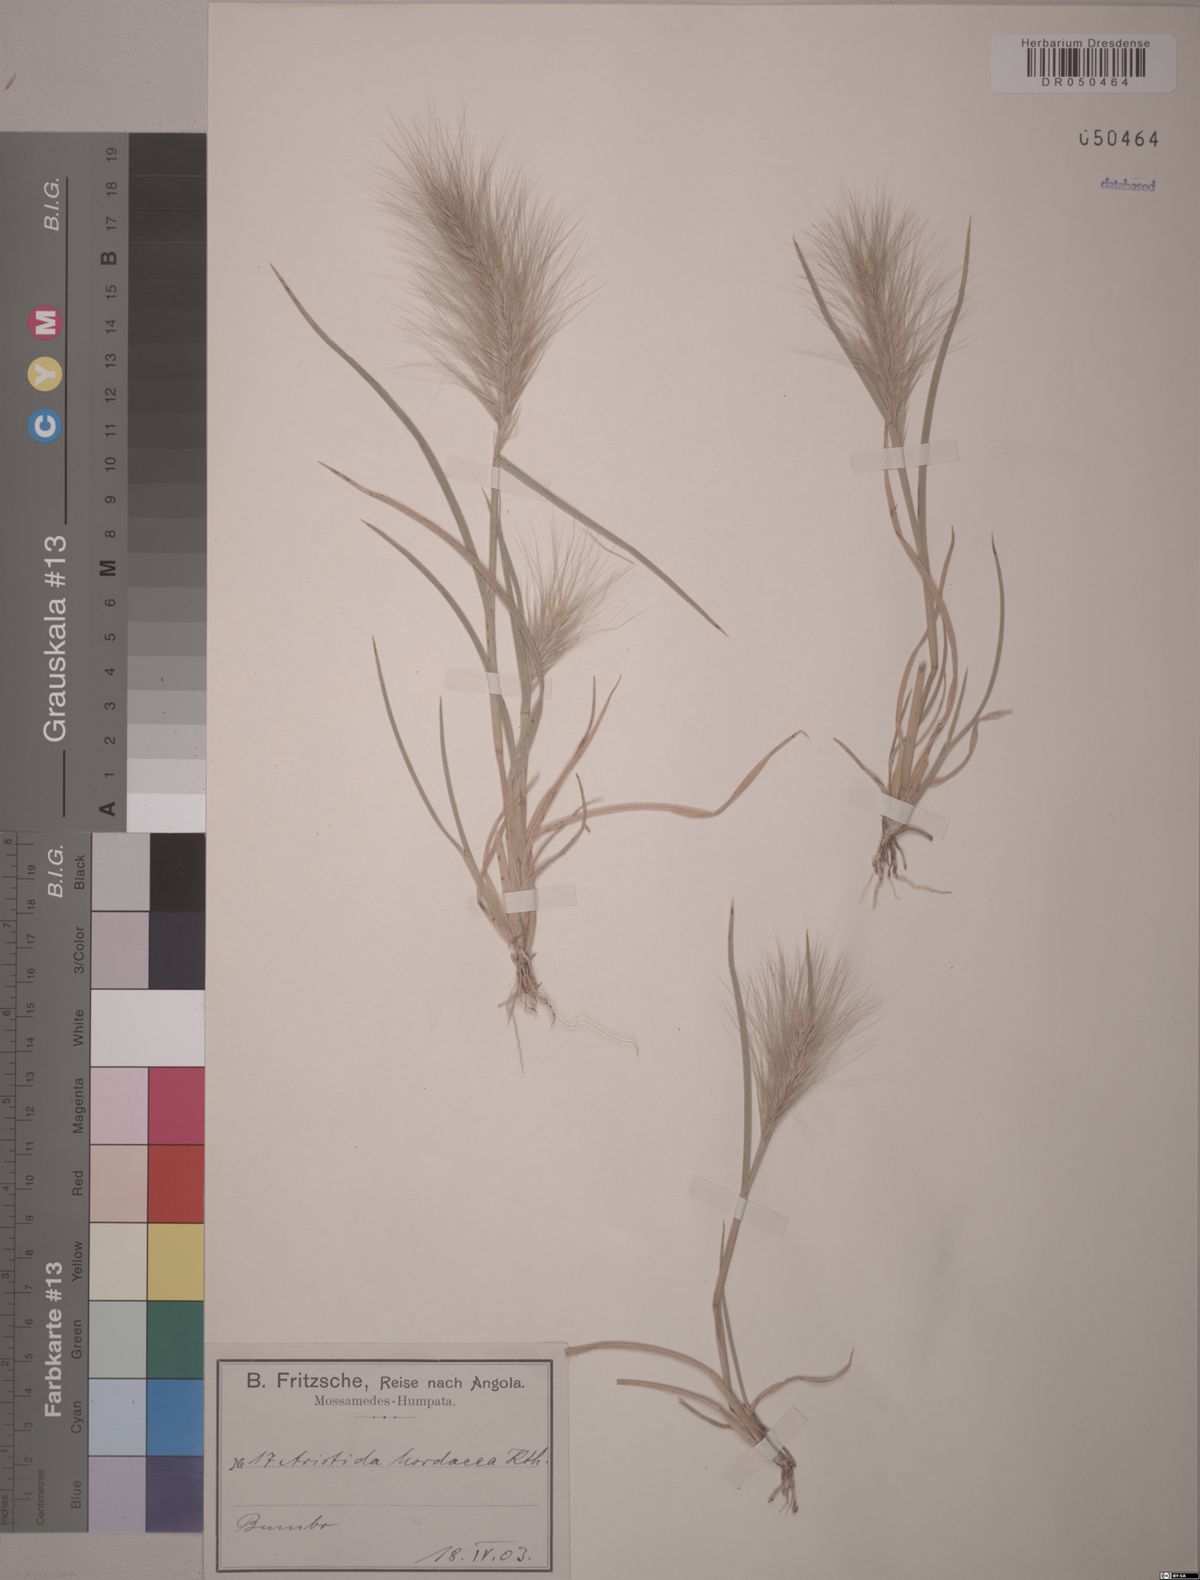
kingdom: Plantae
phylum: Tracheophyta
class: Liliopsida
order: Poales
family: Poaceae
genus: Aristida
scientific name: Aristida hordeacea
